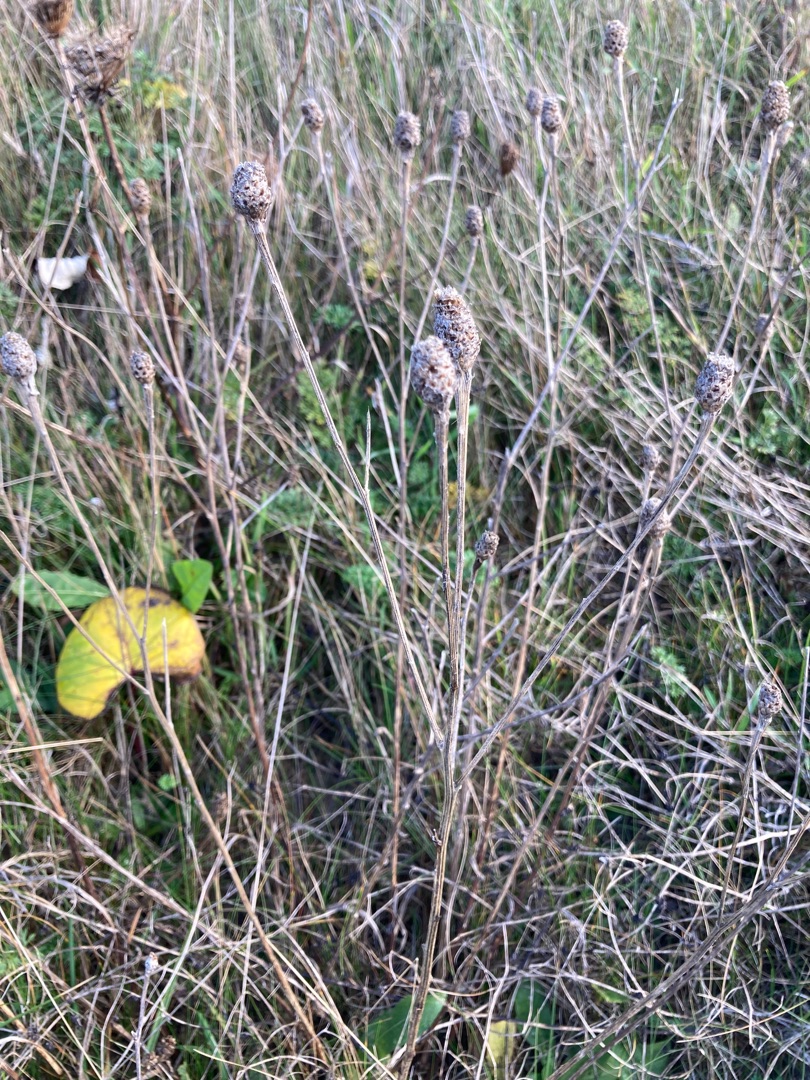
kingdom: Plantae
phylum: Tracheophyta
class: Magnoliopsida
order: Asterales
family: Asteraceae
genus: Centaurea
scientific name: Centaurea jacea
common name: Almindelig knopurt
